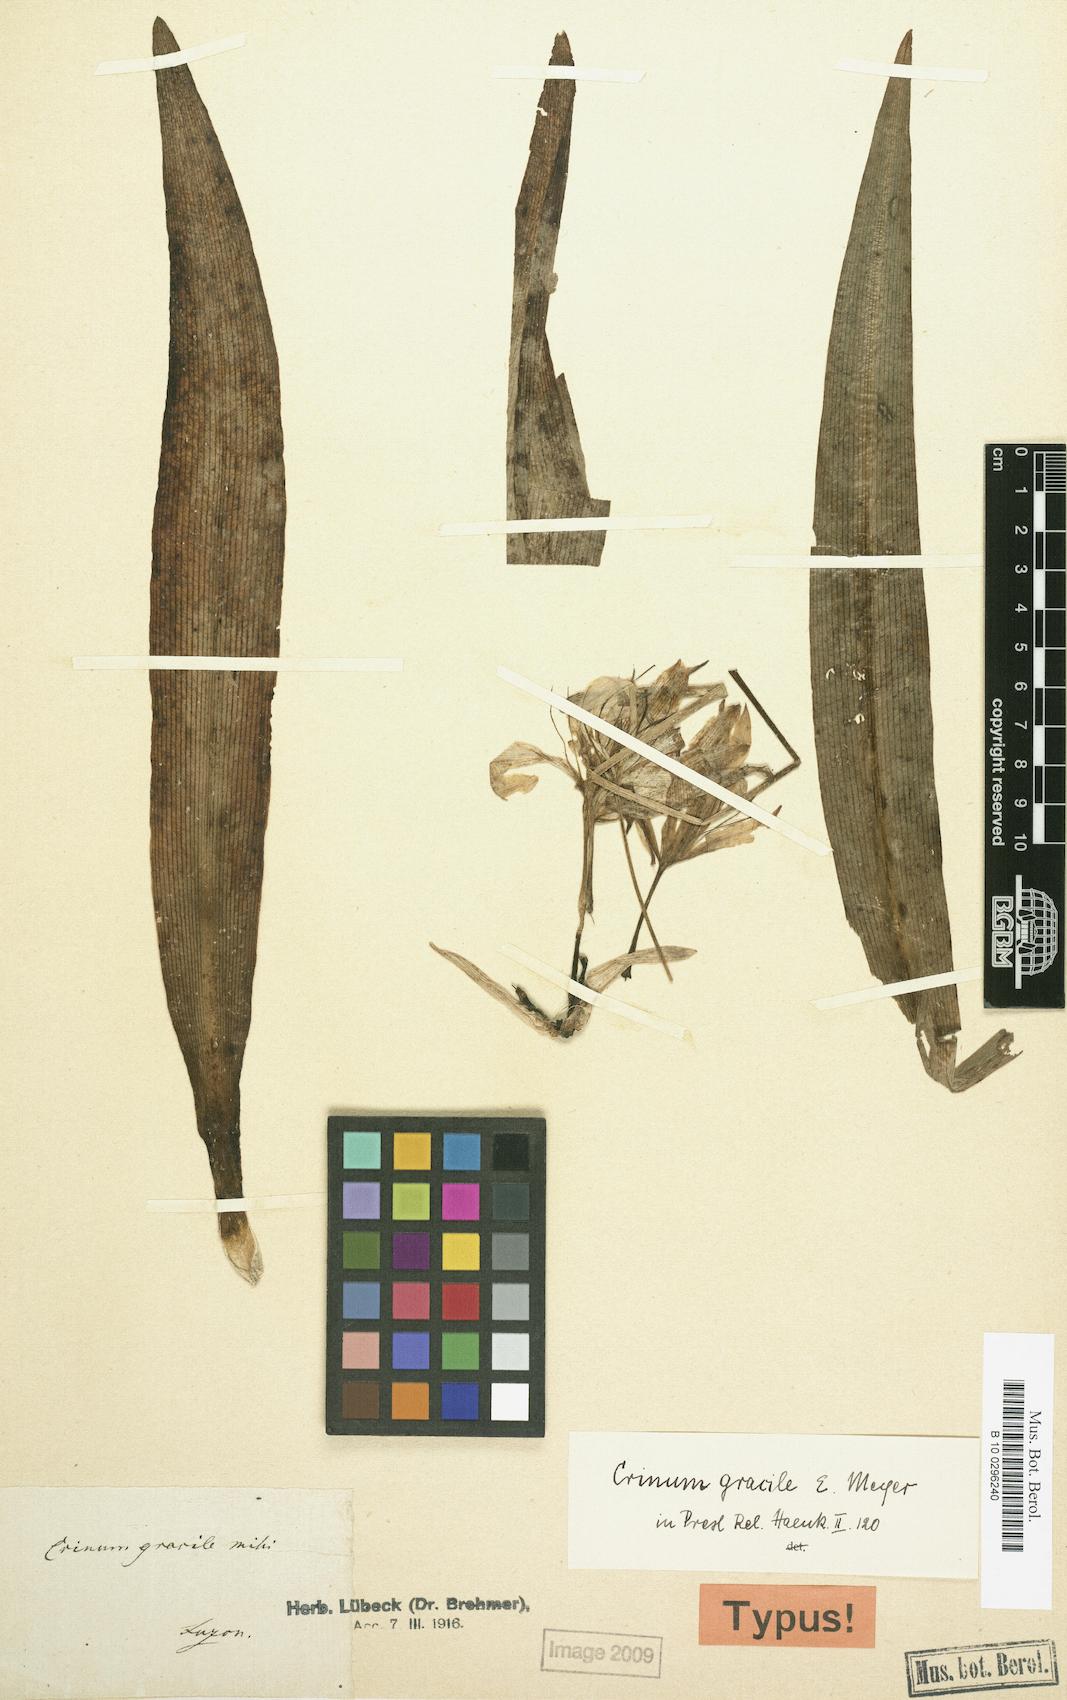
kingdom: Plantae
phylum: Tracheophyta
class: Liliopsida
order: Asparagales
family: Amaryllidaceae
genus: Crinum
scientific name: Crinum gracile
